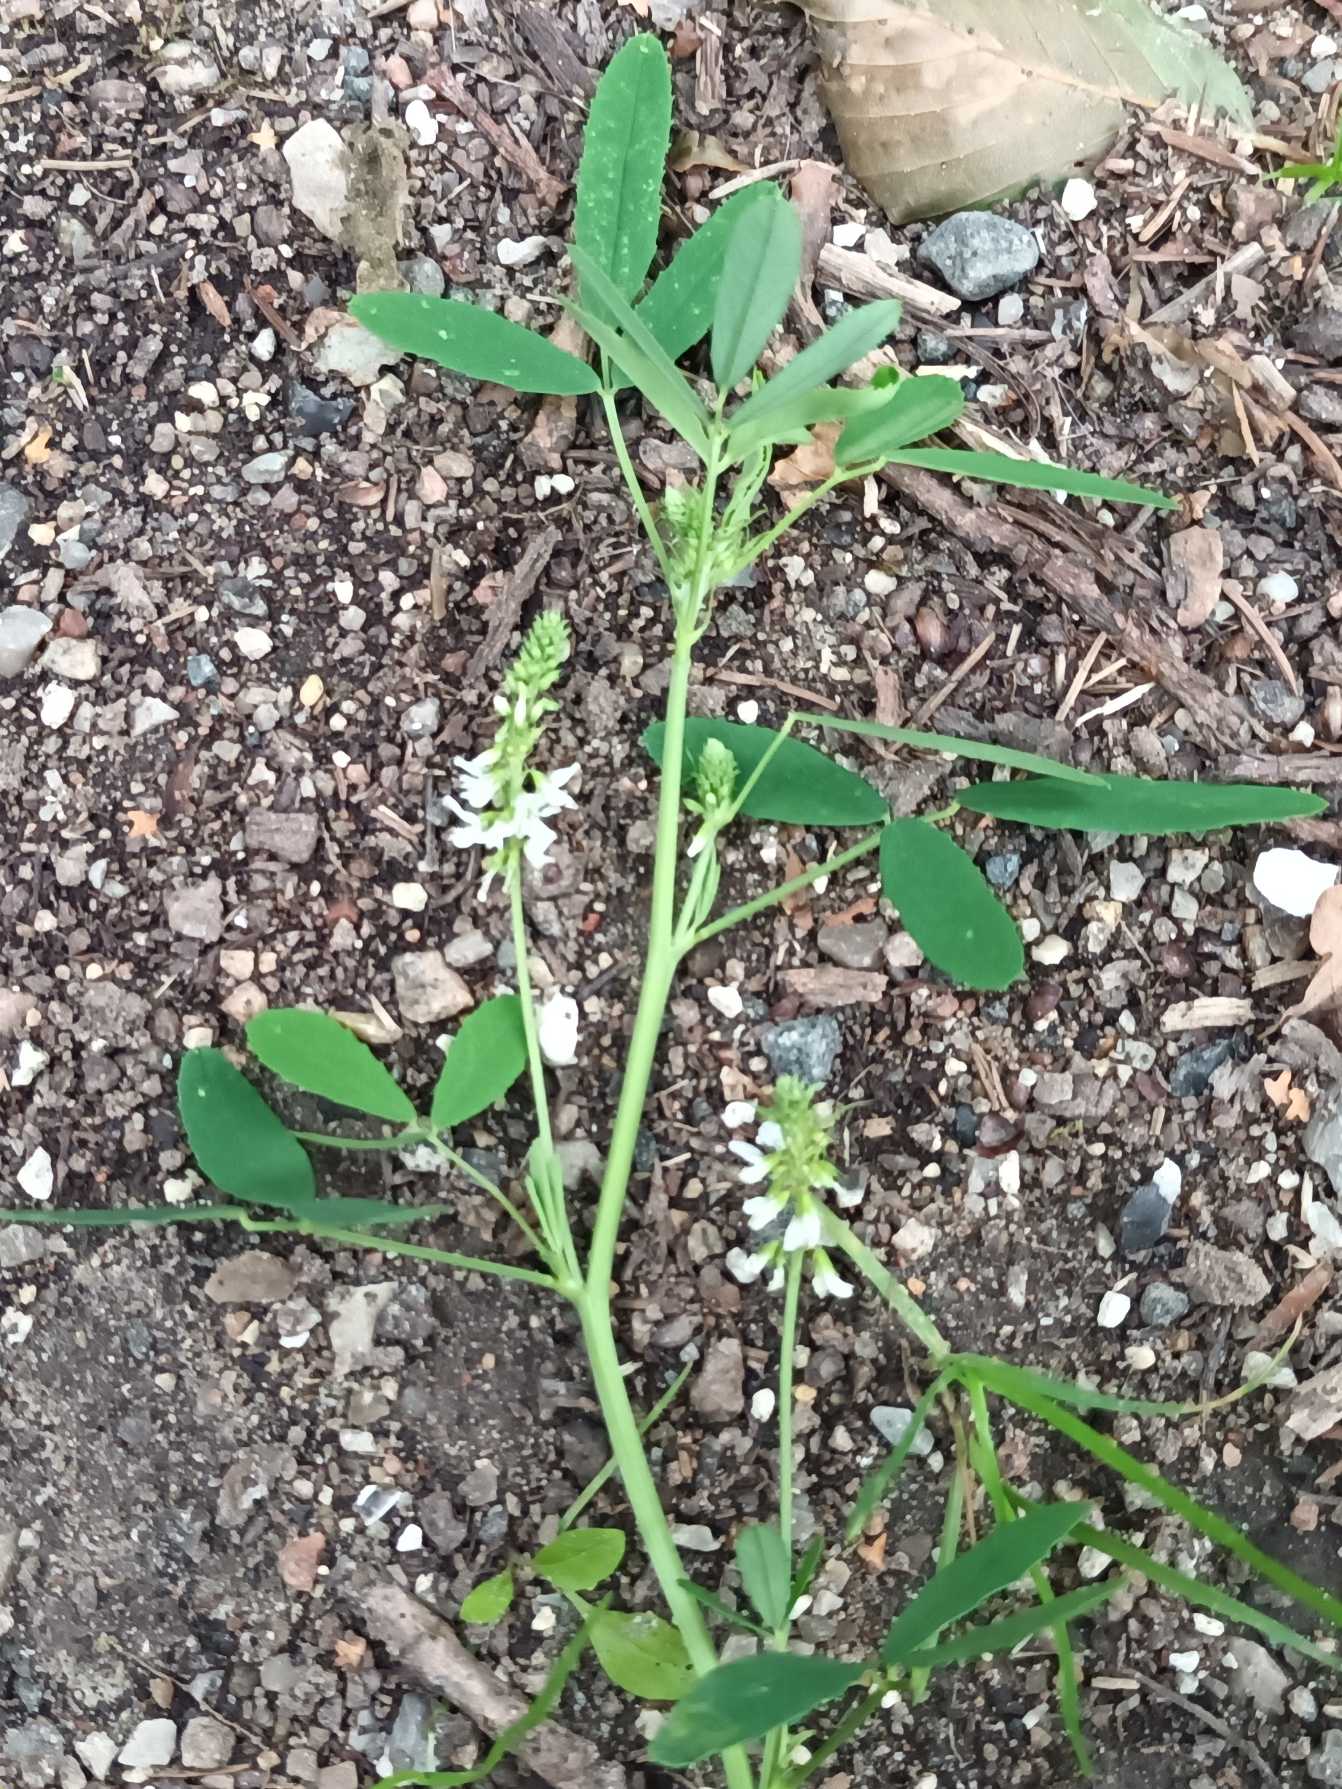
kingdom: Plantae
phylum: Tracheophyta
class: Magnoliopsida
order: Fabales
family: Fabaceae
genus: Melilotus
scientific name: Melilotus albus
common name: Hvid stenkløver
